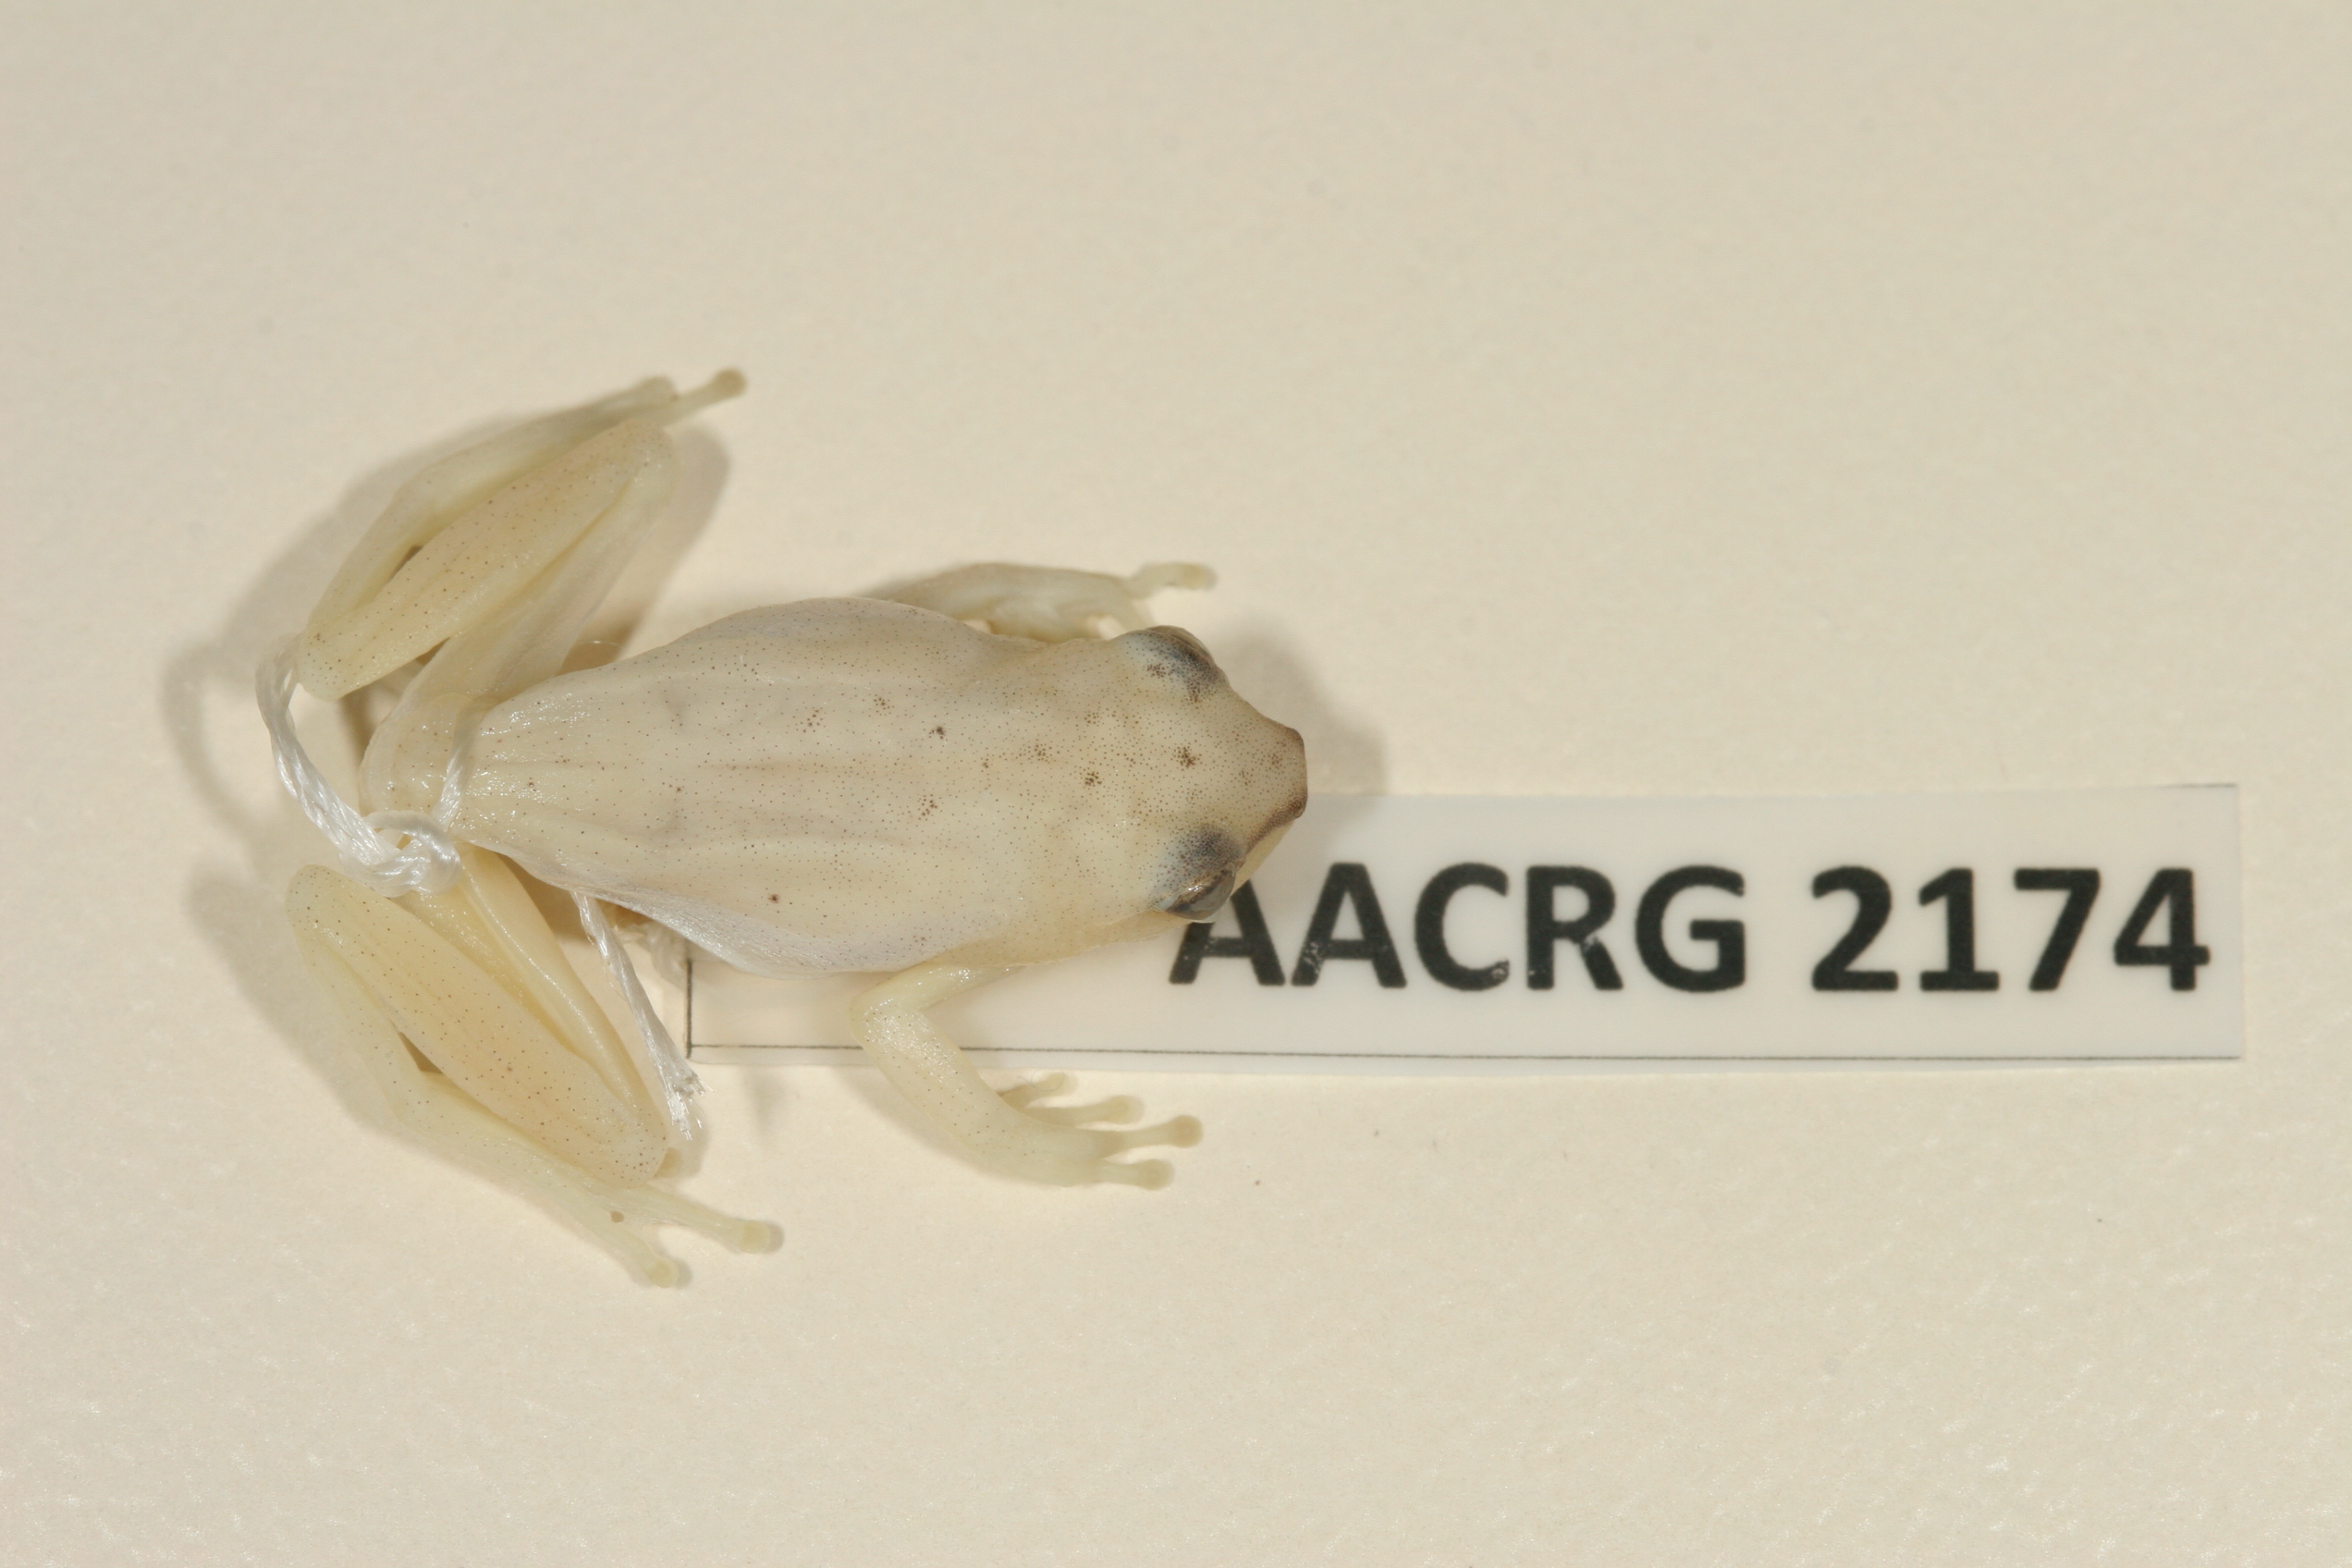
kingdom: Animalia
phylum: Chordata
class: Amphibia
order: Anura
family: Hyperoliidae
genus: Hyperolius
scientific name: Hyperolius pusillus
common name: Water lily reed frog
